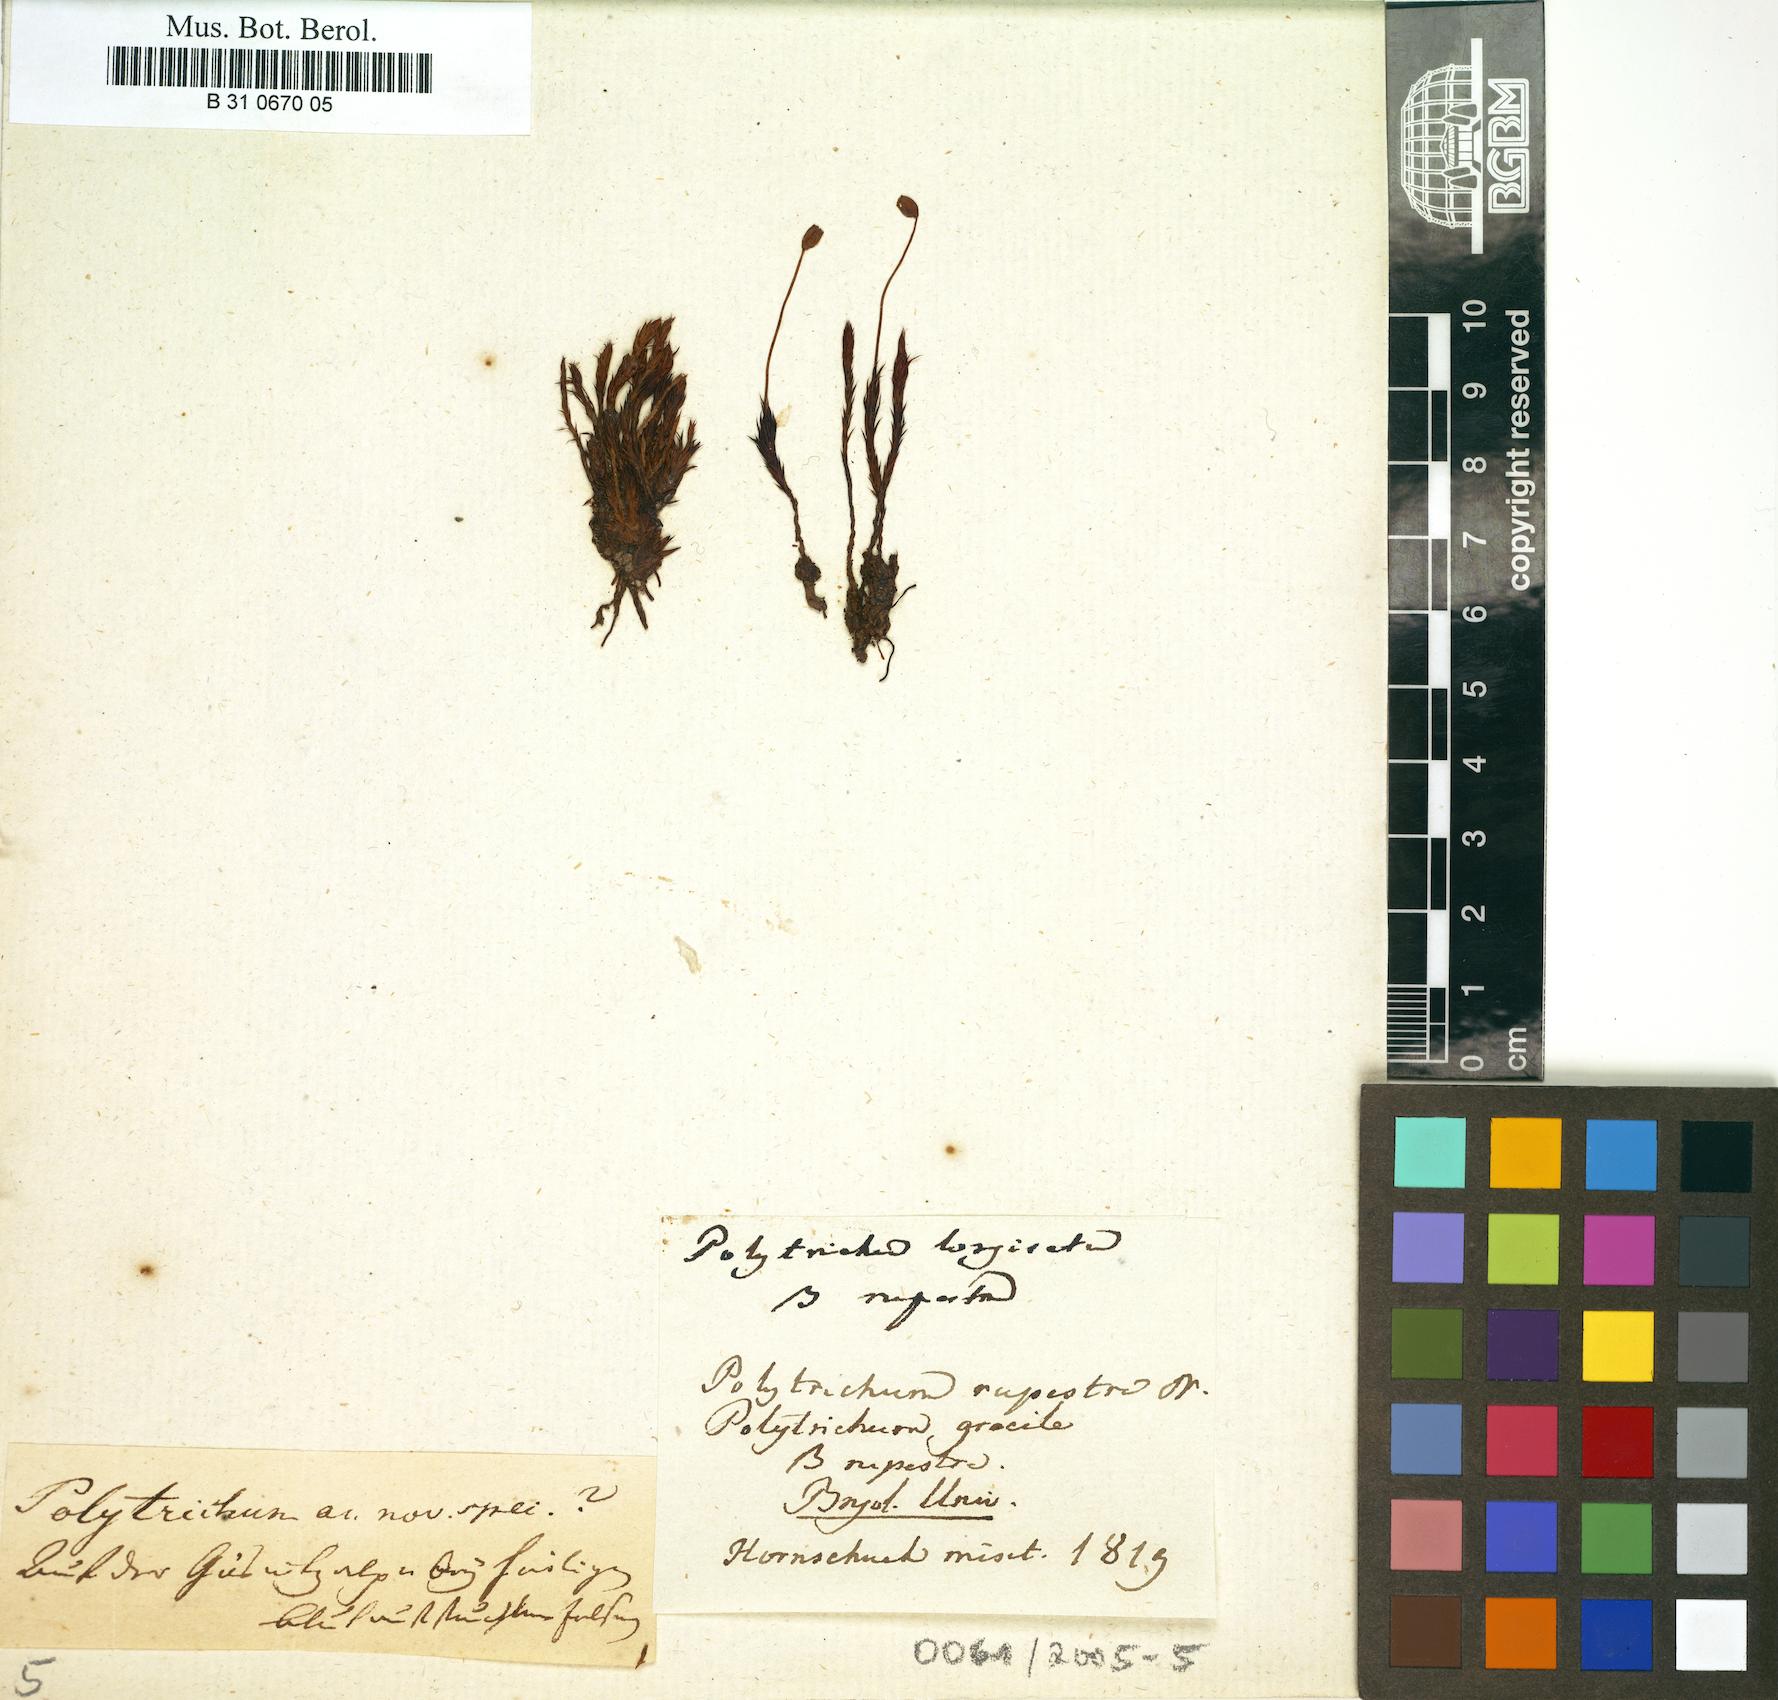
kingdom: Plantae
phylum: Bryophyta
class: Polytrichopsida
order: Polytrichales
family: Polytrichaceae
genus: Polytrichum
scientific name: Polytrichum longisetum
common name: Long-stalked haircap moss
